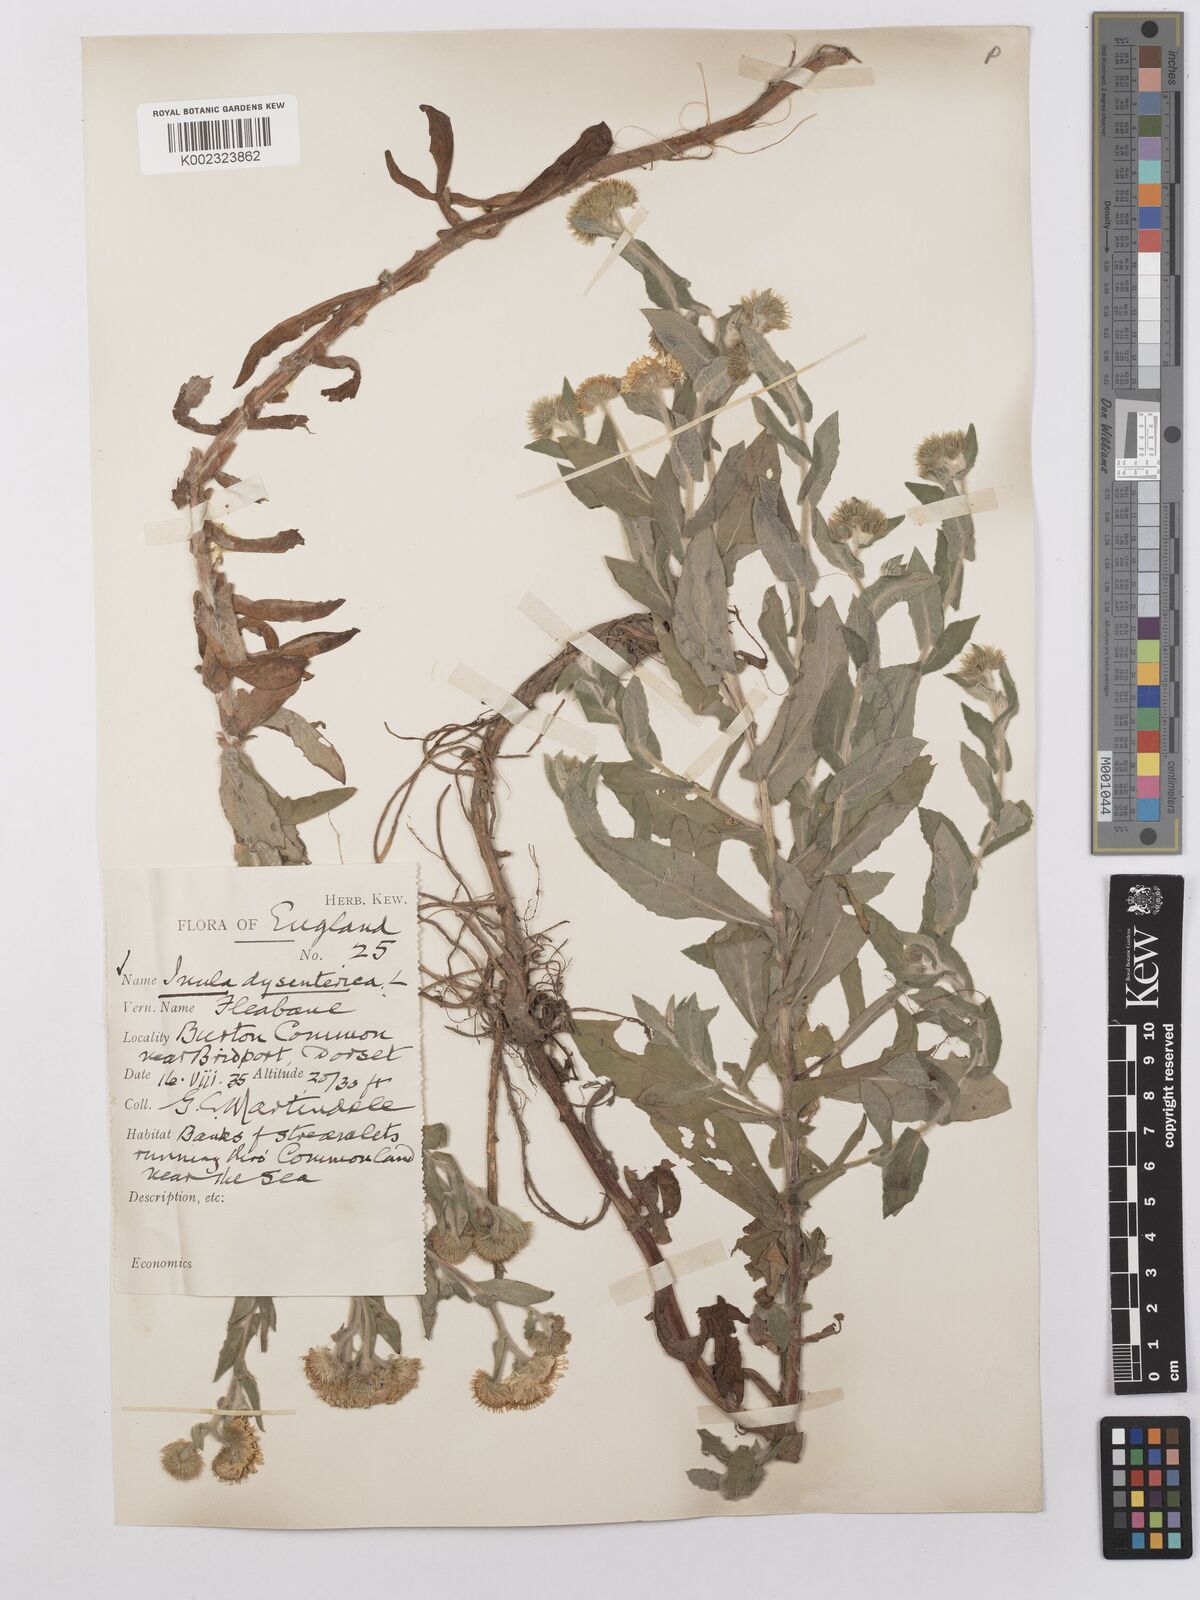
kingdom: Plantae
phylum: Tracheophyta
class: Magnoliopsida
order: Asterales
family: Asteraceae
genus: Pulicaria
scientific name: Pulicaria dysenterica
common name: Common fleabane
